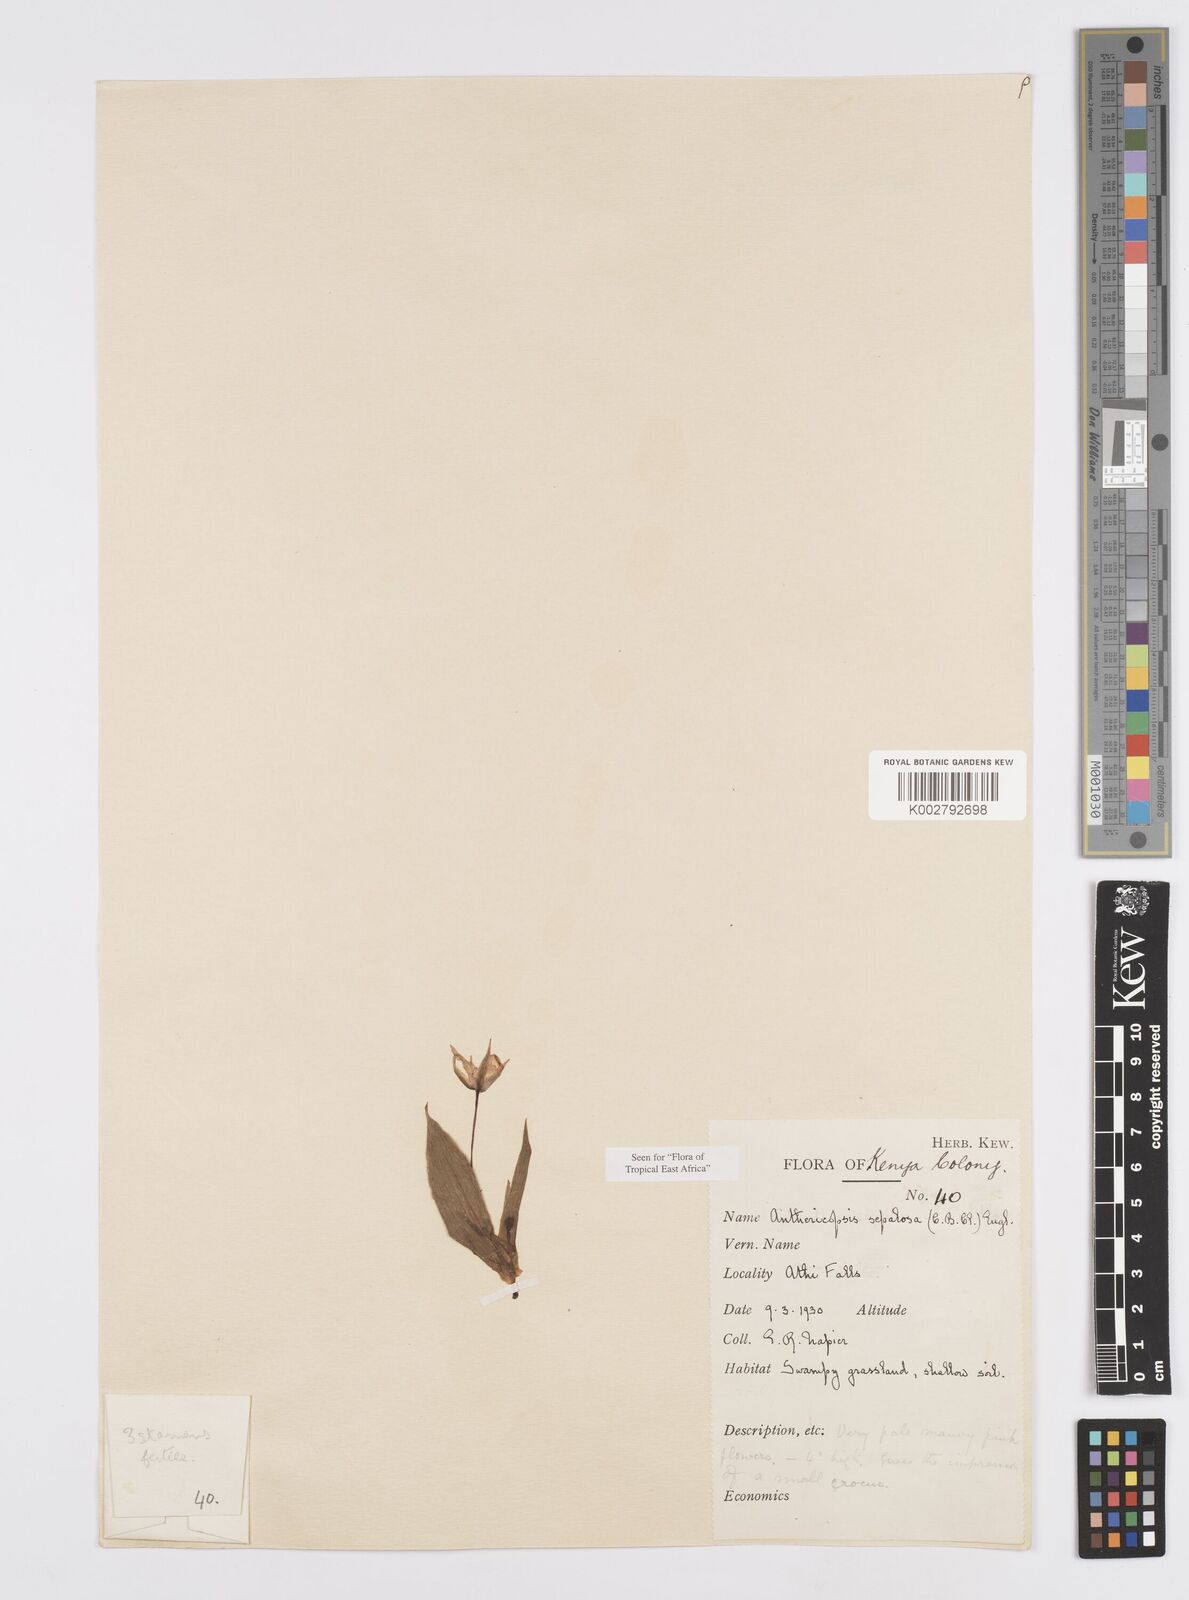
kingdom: Plantae
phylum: Tracheophyta
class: Liliopsida
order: Commelinales
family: Commelinaceae
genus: Anthericopsis
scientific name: Anthericopsis sepalosa
